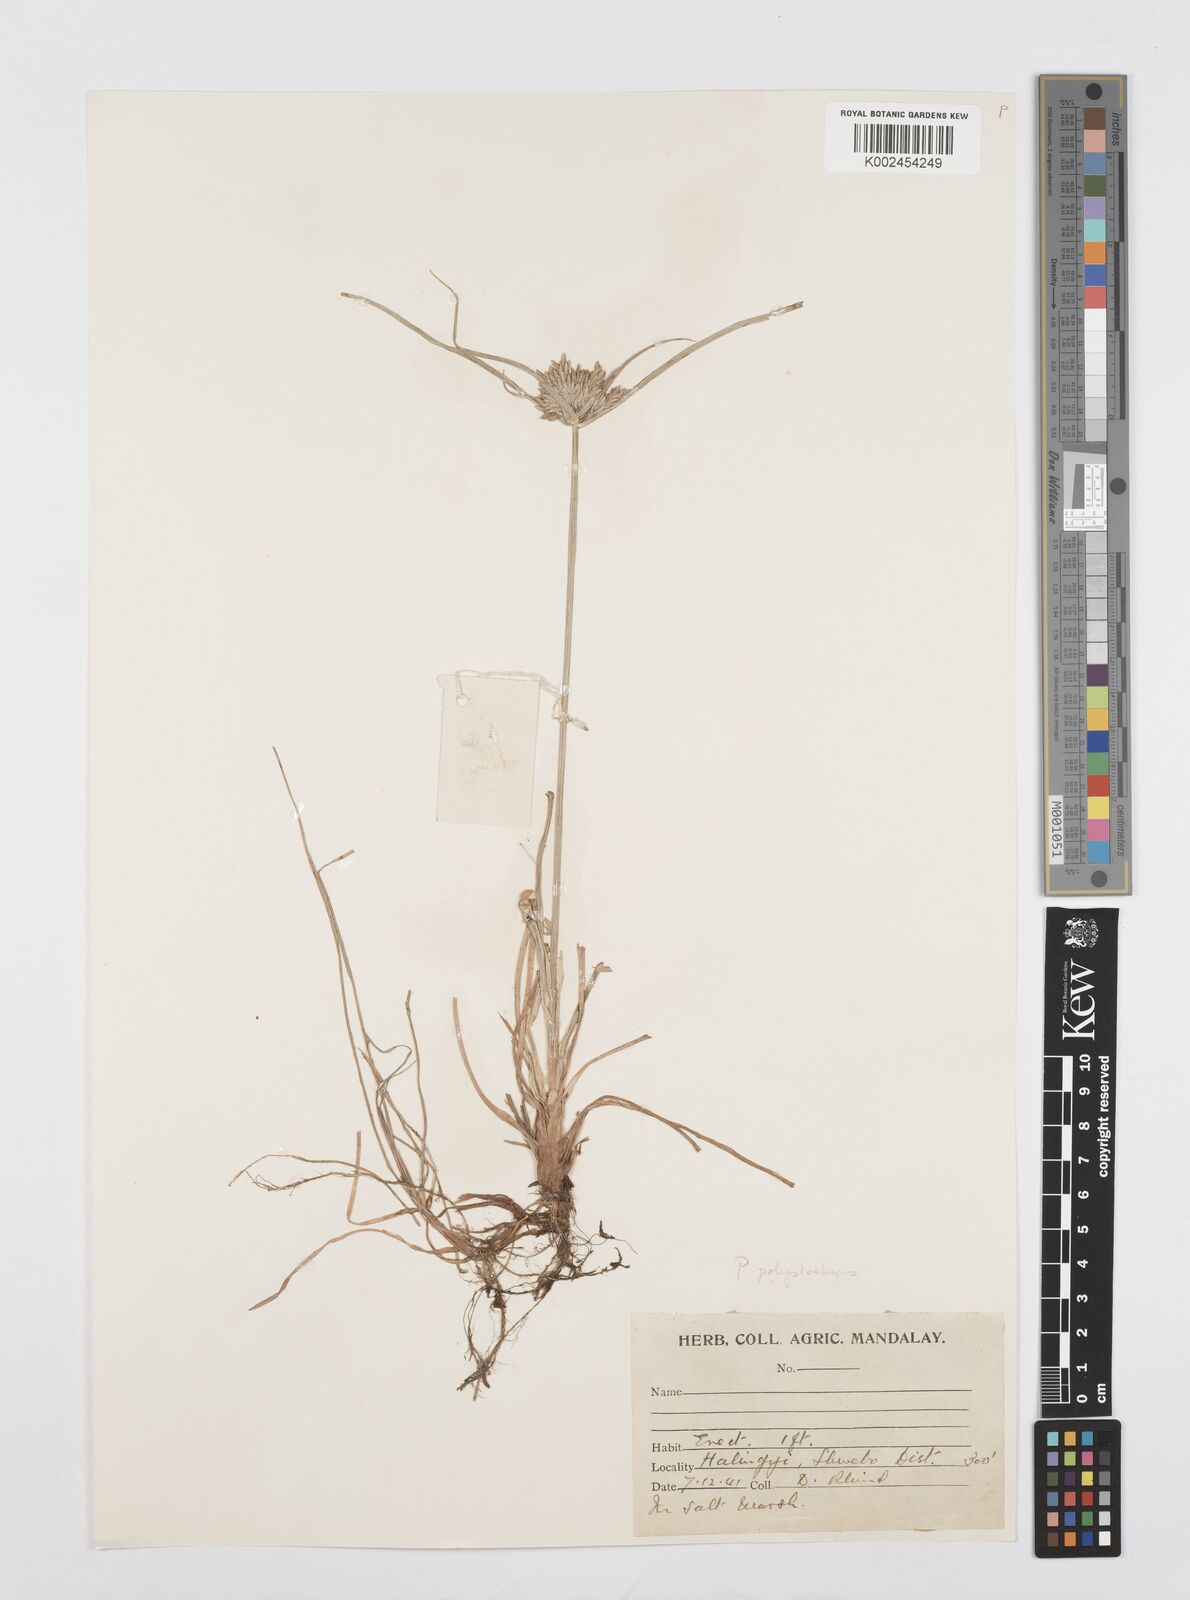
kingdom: Plantae
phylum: Tracheophyta
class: Liliopsida
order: Poales
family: Cyperaceae
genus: Cyperus
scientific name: Cyperus polystachyos
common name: Bunchy flat sedge
